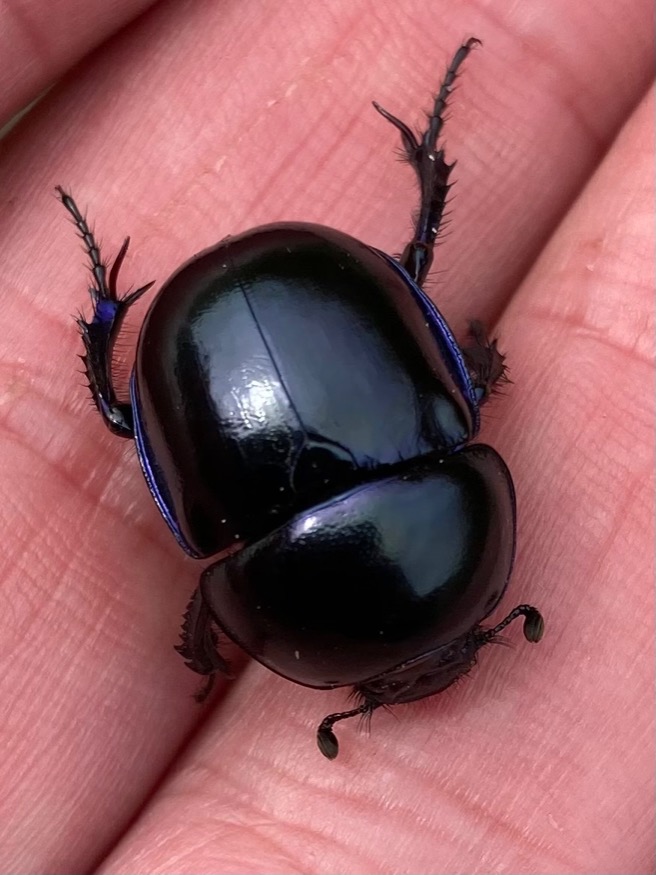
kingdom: Animalia
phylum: Arthropoda
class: Insecta
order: Coleoptera
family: Geotrupidae
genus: Trypocopris
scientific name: Trypocopris vernalis
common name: Glat skarnbasse
